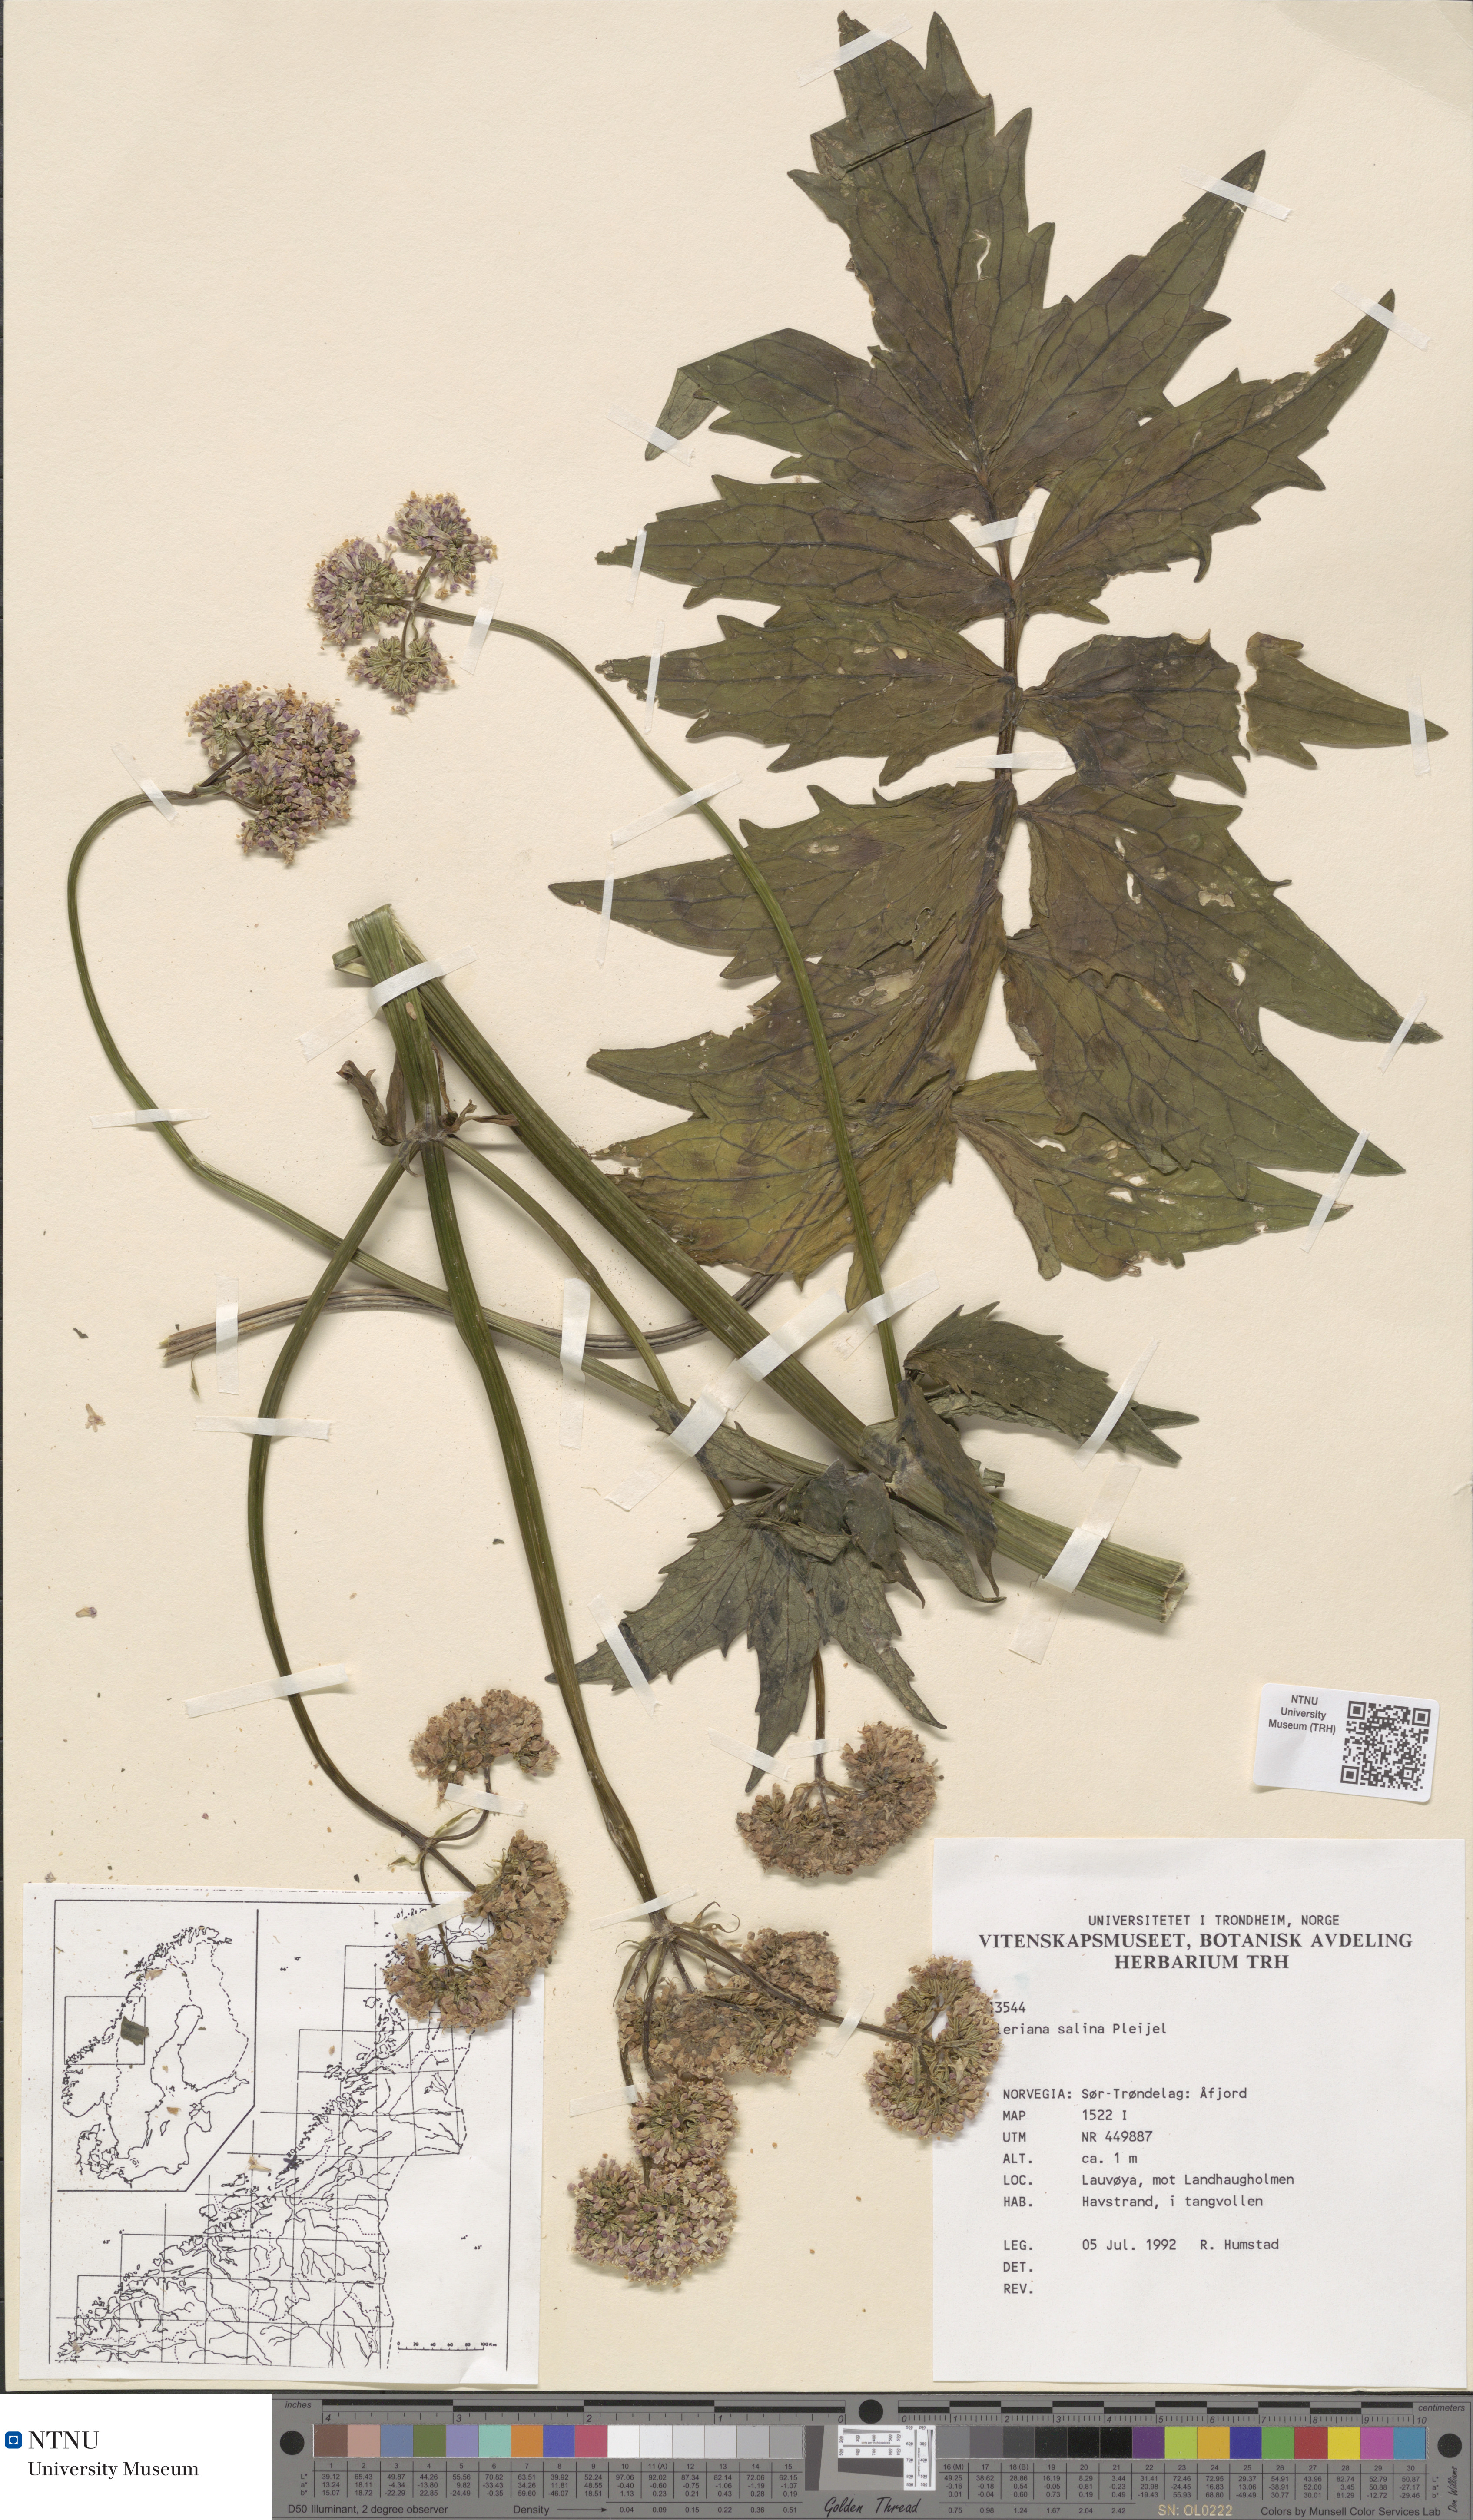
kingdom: Plantae
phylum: Tracheophyta
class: Magnoliopsida
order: Dipsacales
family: Caprifoliaceae
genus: Valeriana
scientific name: Valeriana sambucifolia
